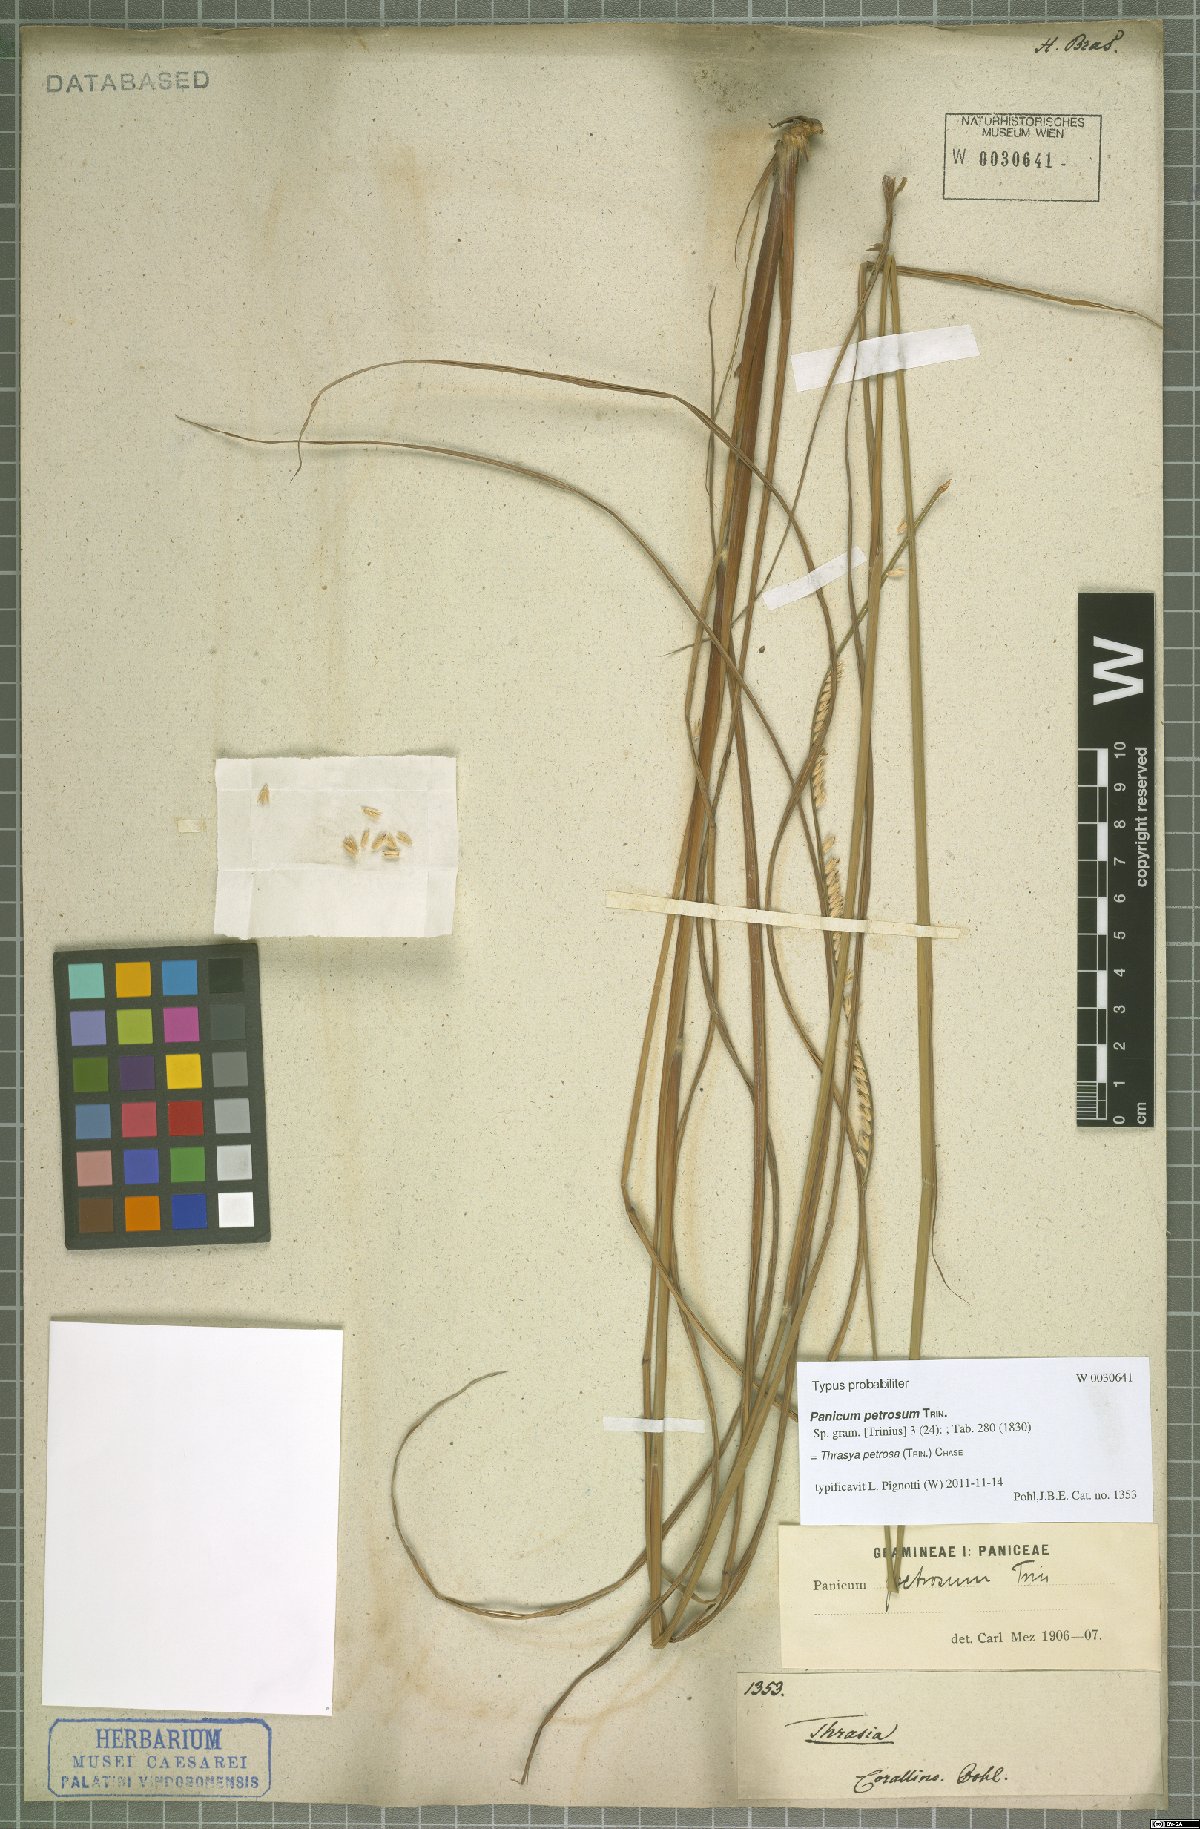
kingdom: Plantae
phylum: Tracheophyta
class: Liliopsida
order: Poales
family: Poaceae
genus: Paspalum
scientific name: Paspalum foliiforme
